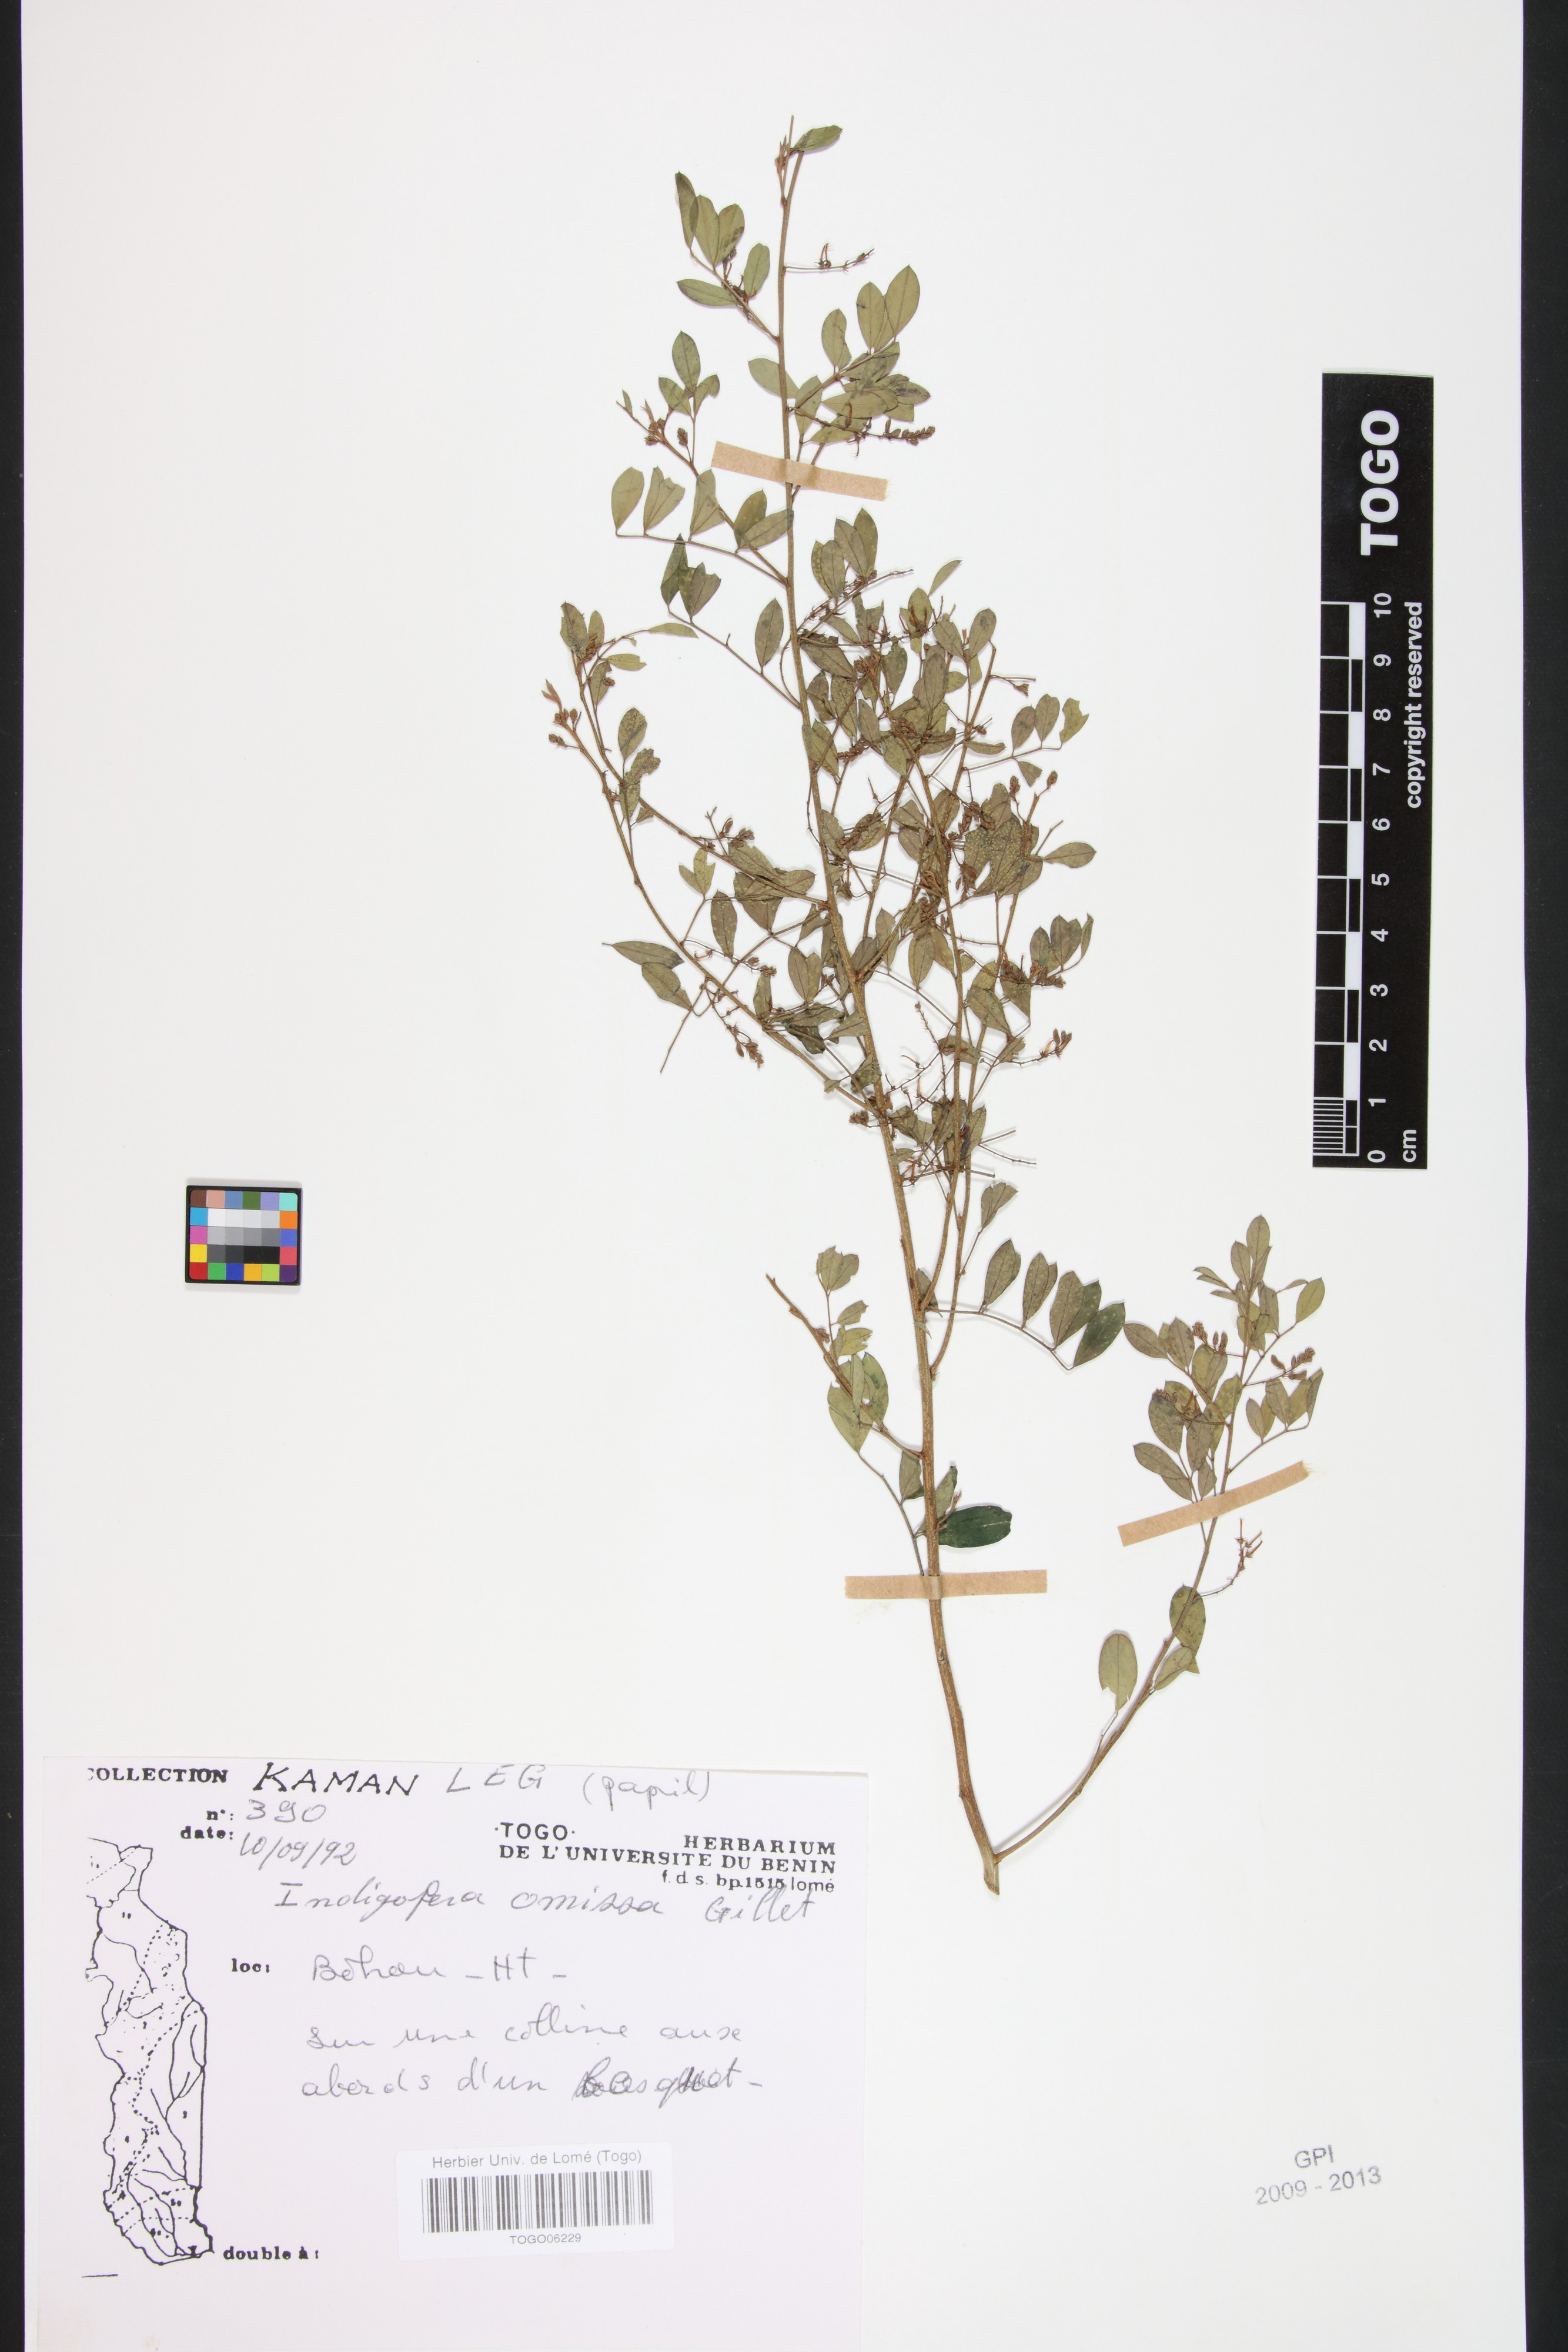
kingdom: Plantae
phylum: Tracheophyta
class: Magnoliopsida
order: Fabales
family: Fabaceae
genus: Indigofera
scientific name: Indigofera omissa
